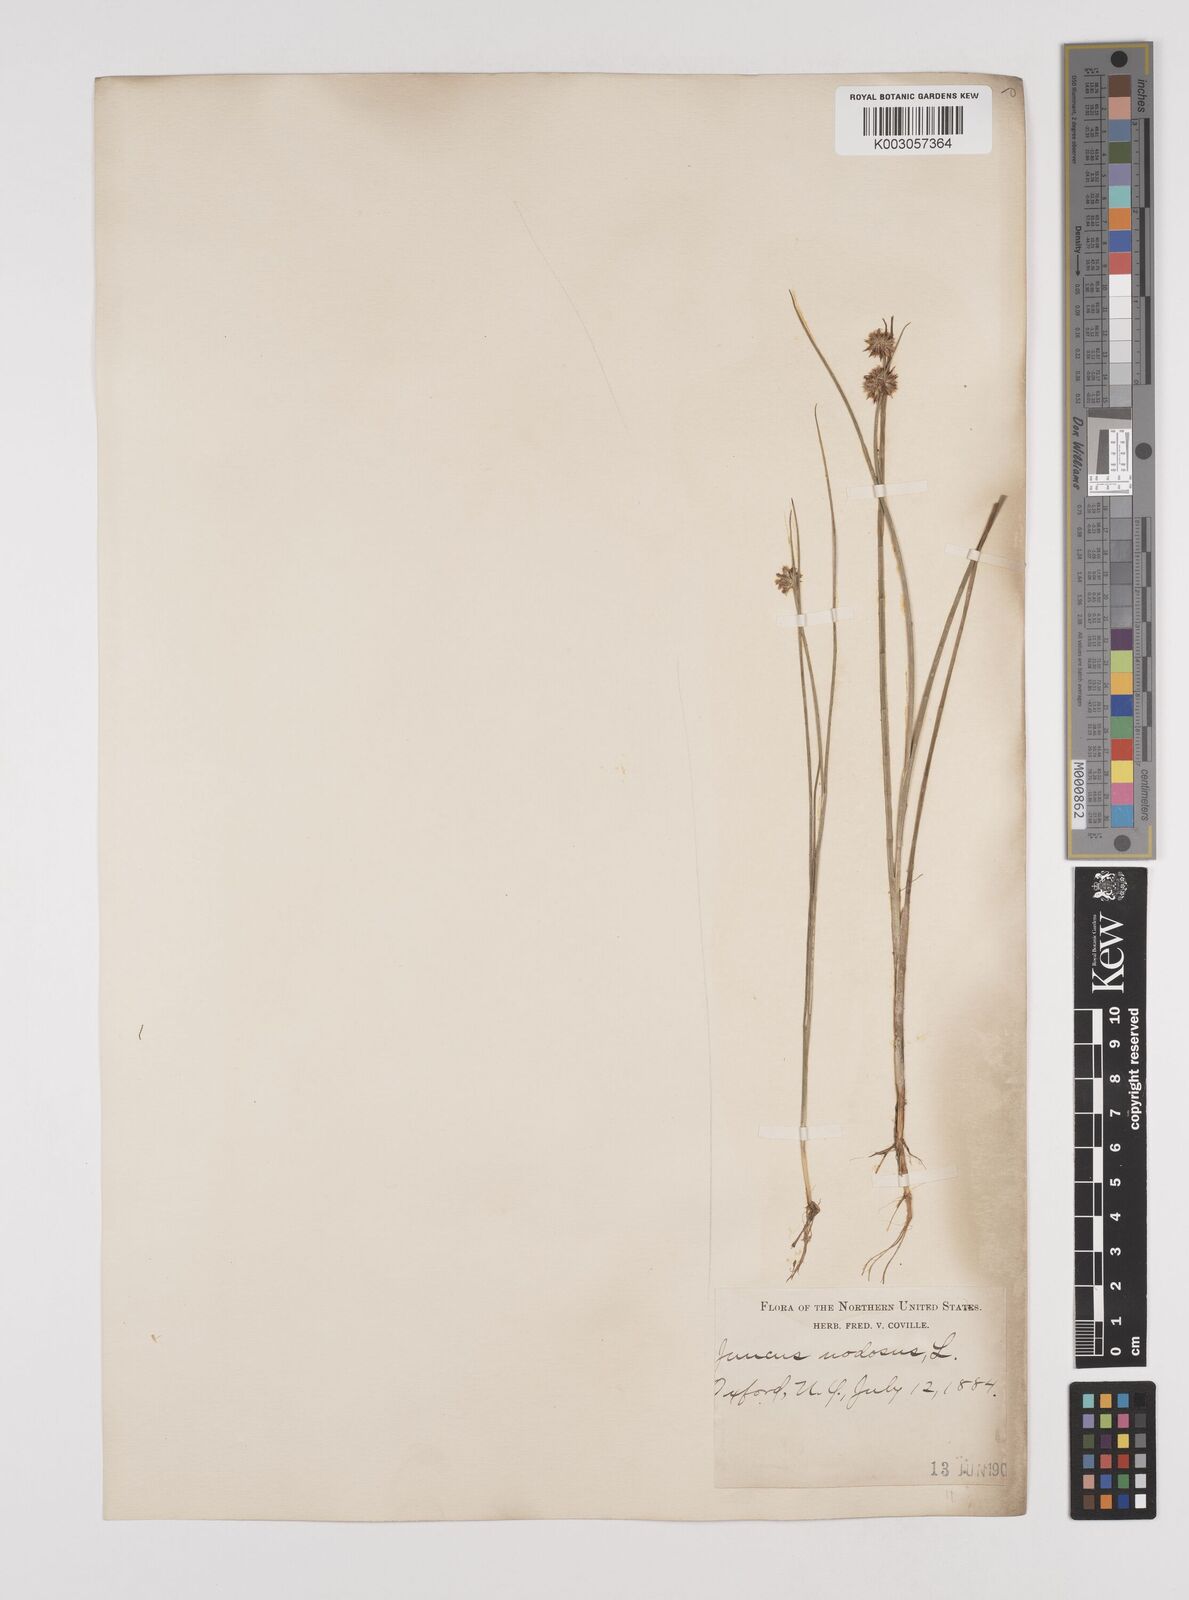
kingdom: Plantae
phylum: Tracheophyta
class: Liliopsida
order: Poales
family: Juncaceae
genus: Juncus
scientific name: Juncus nodosus
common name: Knotted rush
